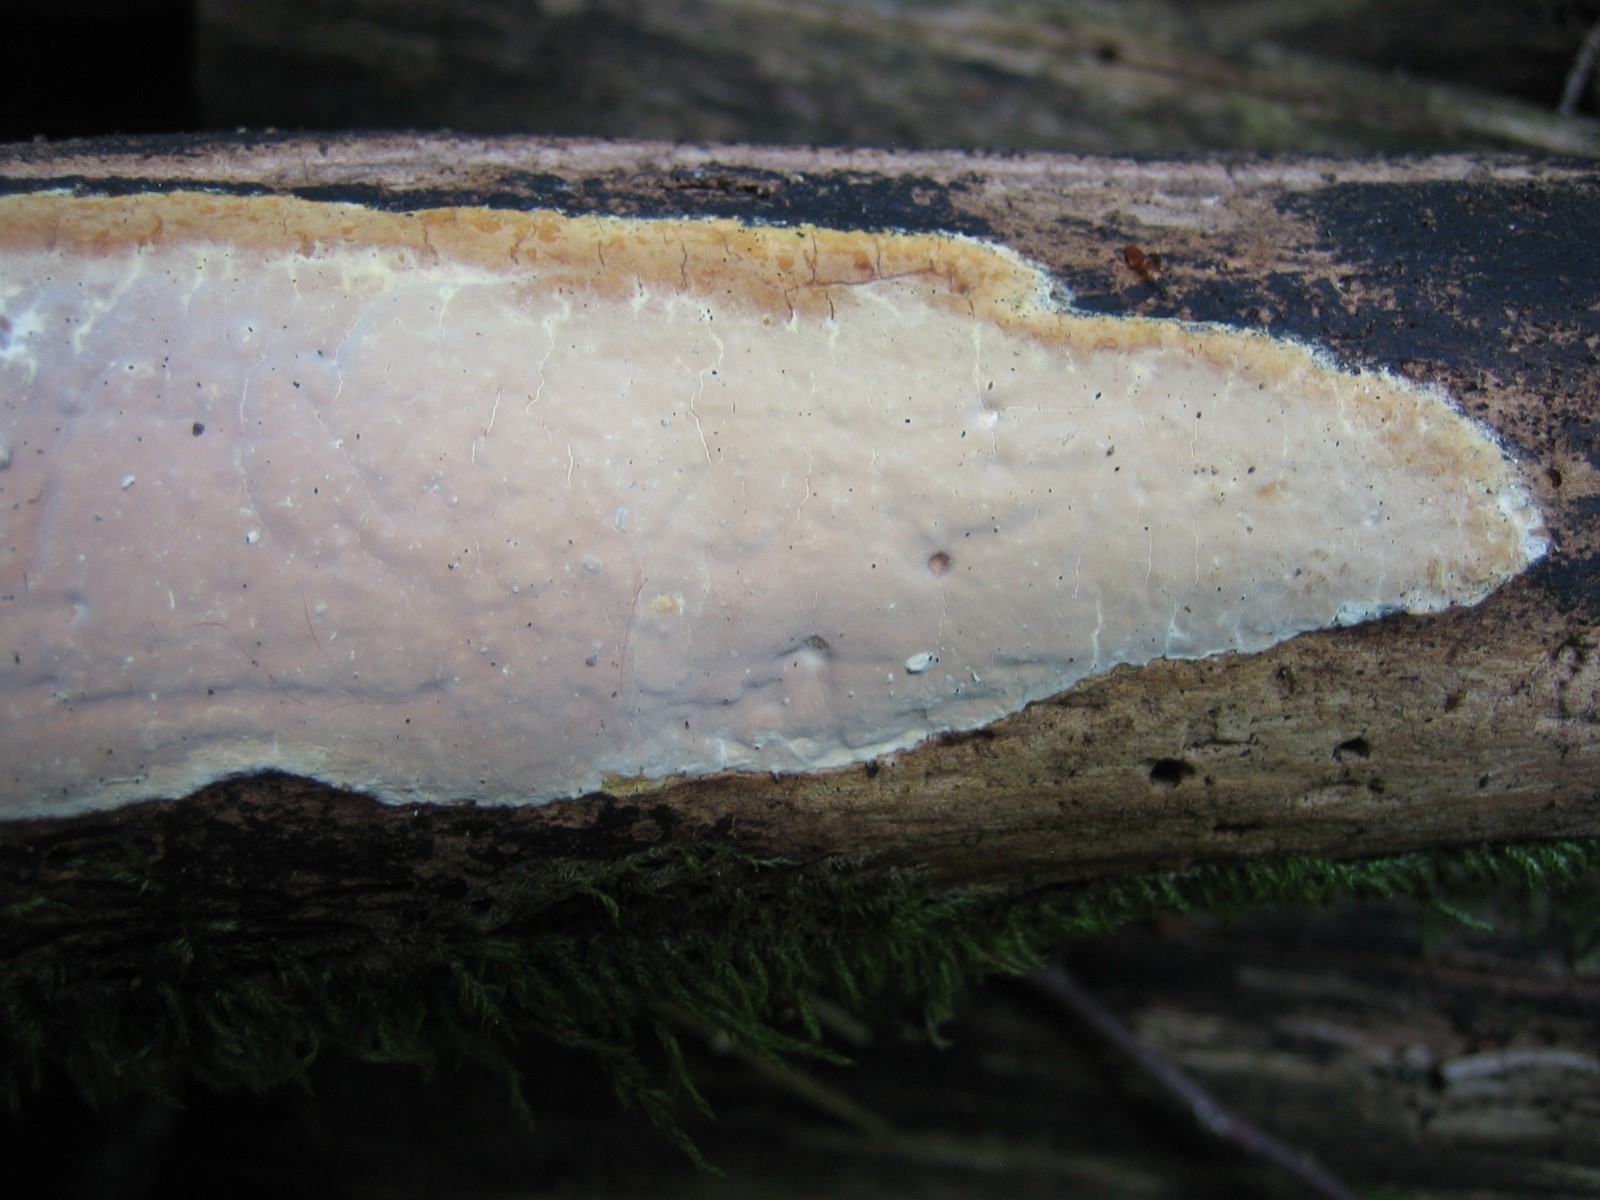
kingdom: Fungi
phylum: Basidiomycota
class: Agaricomycetes
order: Russulales
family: Peniophoraceae
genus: Scytinostroma
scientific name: Scytinostroma hemidichophyticum
